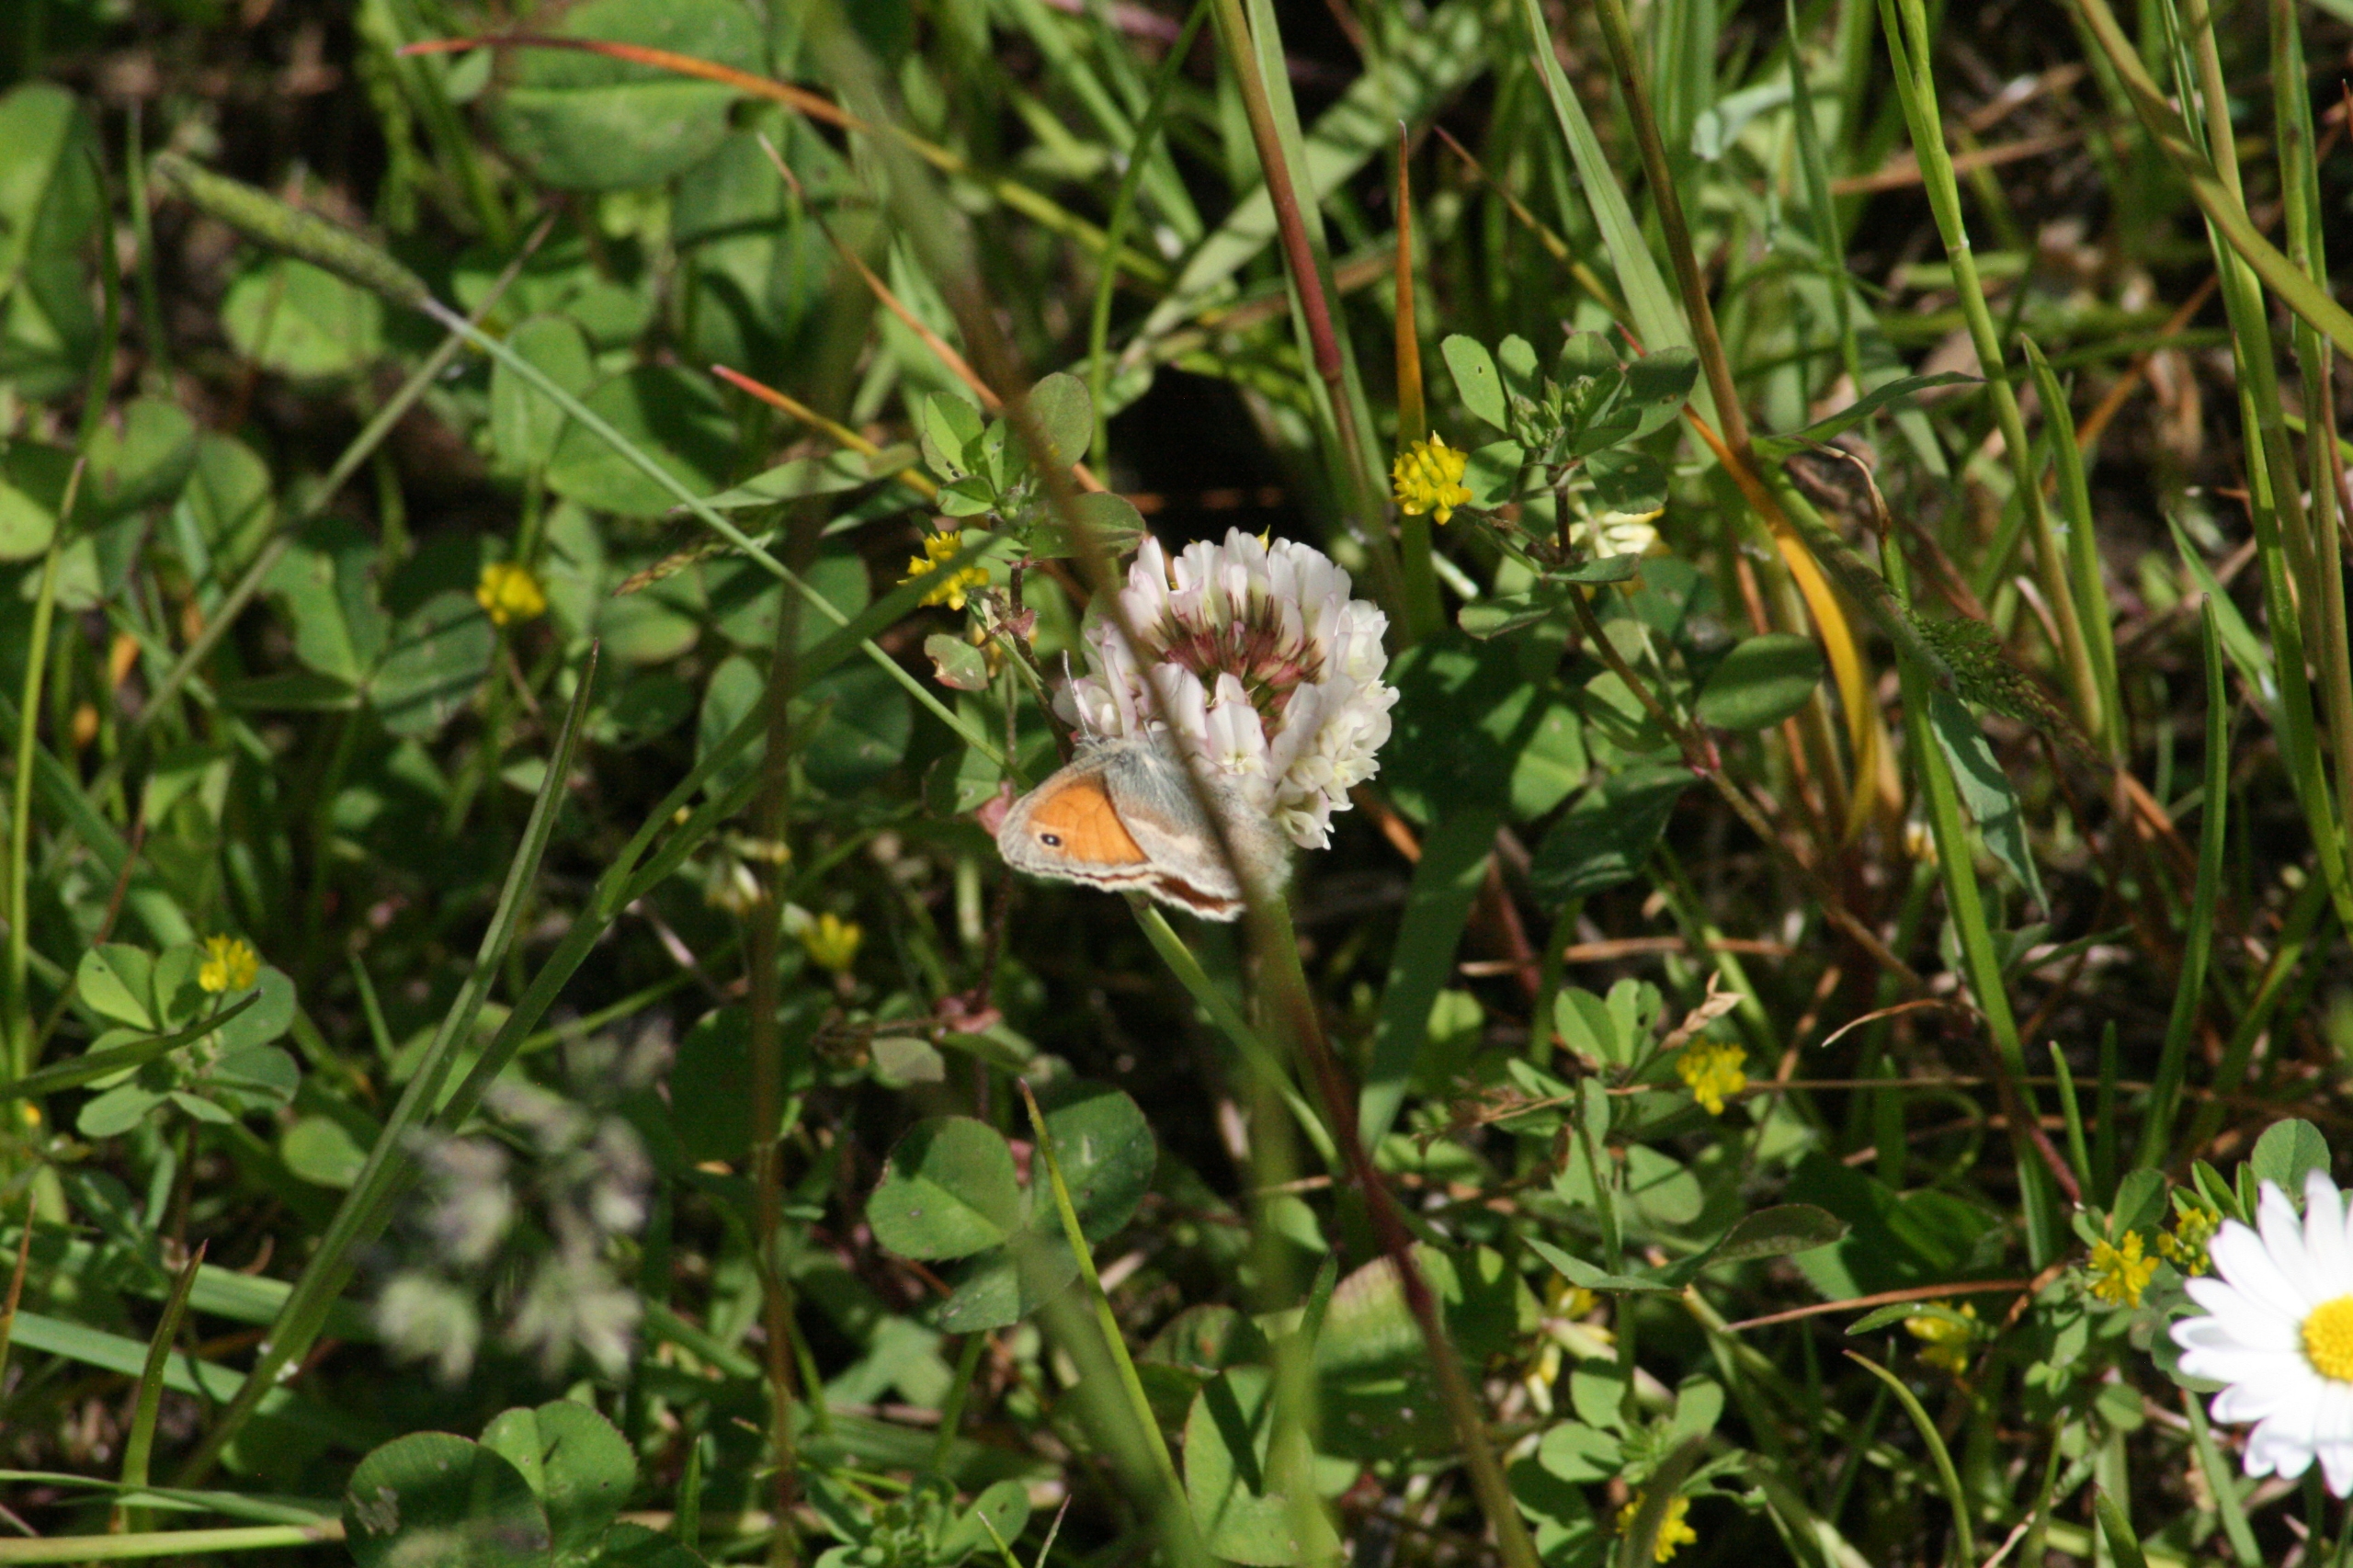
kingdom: Animalia
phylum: Arthropoda
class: Insecta
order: Lepidoptera
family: Nymphalidae
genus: Coenonympha
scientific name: Coenonympha pamphilus
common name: Okkergul randøje
